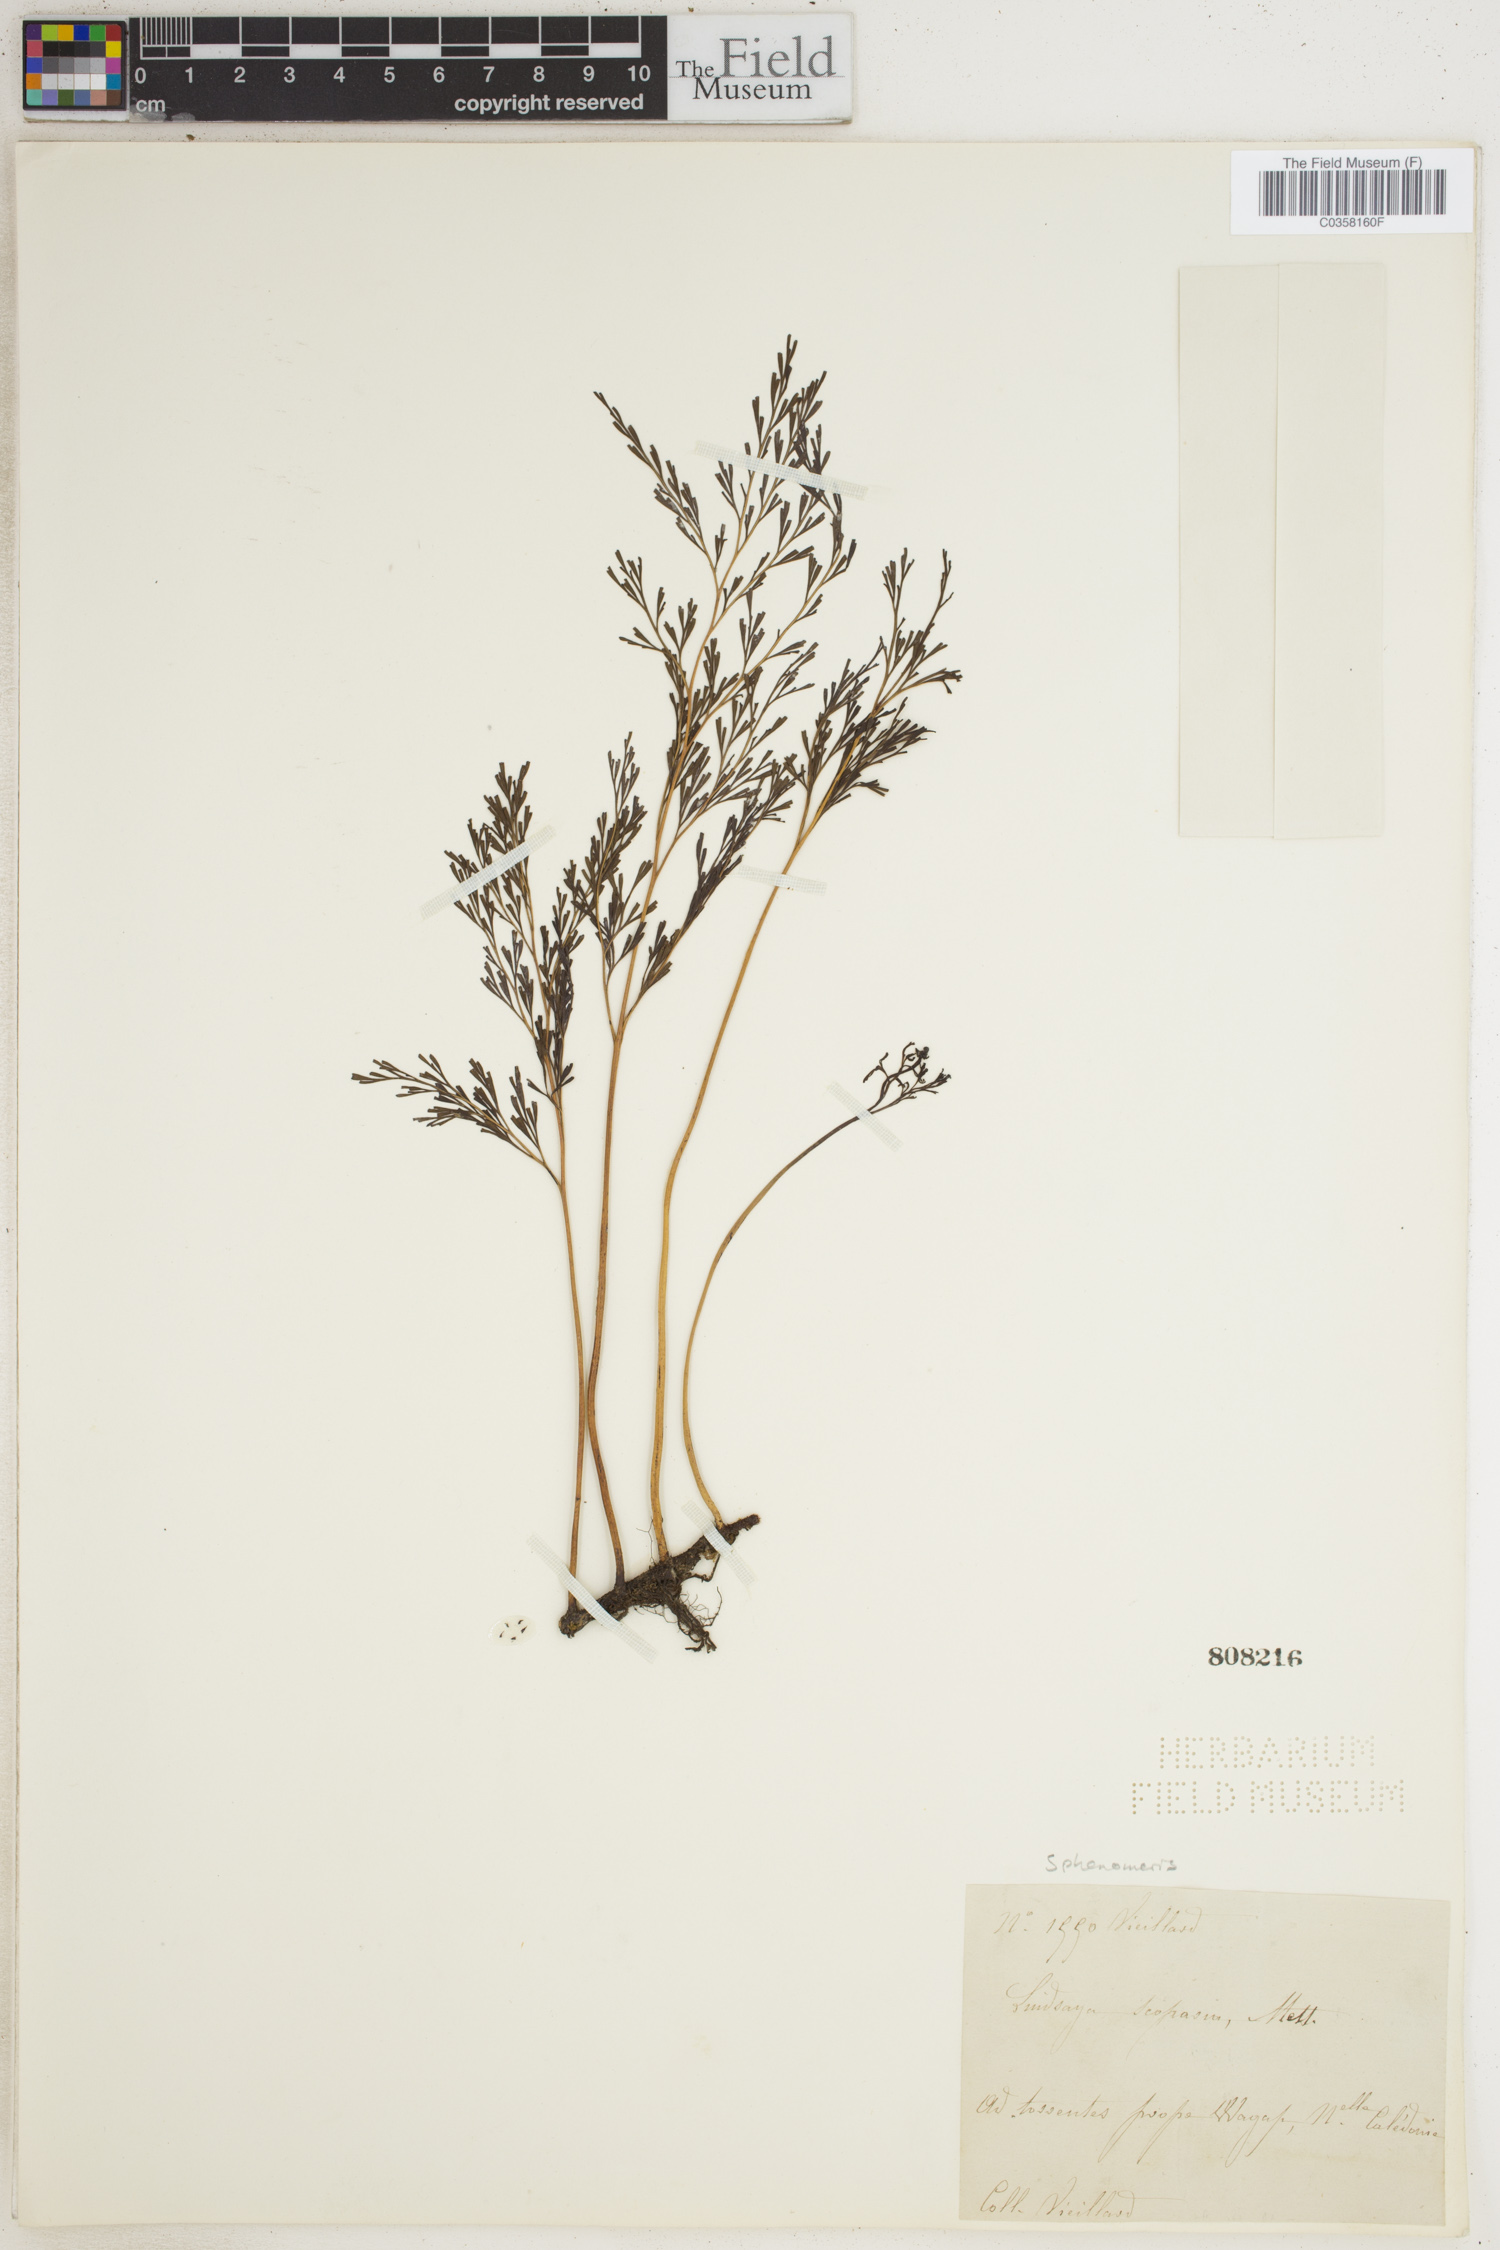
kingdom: Plantae
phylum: Tracheophyta
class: Polypodiopsida
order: Polypodiales
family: Lindsaeaceae
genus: Sphenomeris
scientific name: Sphenomeris
